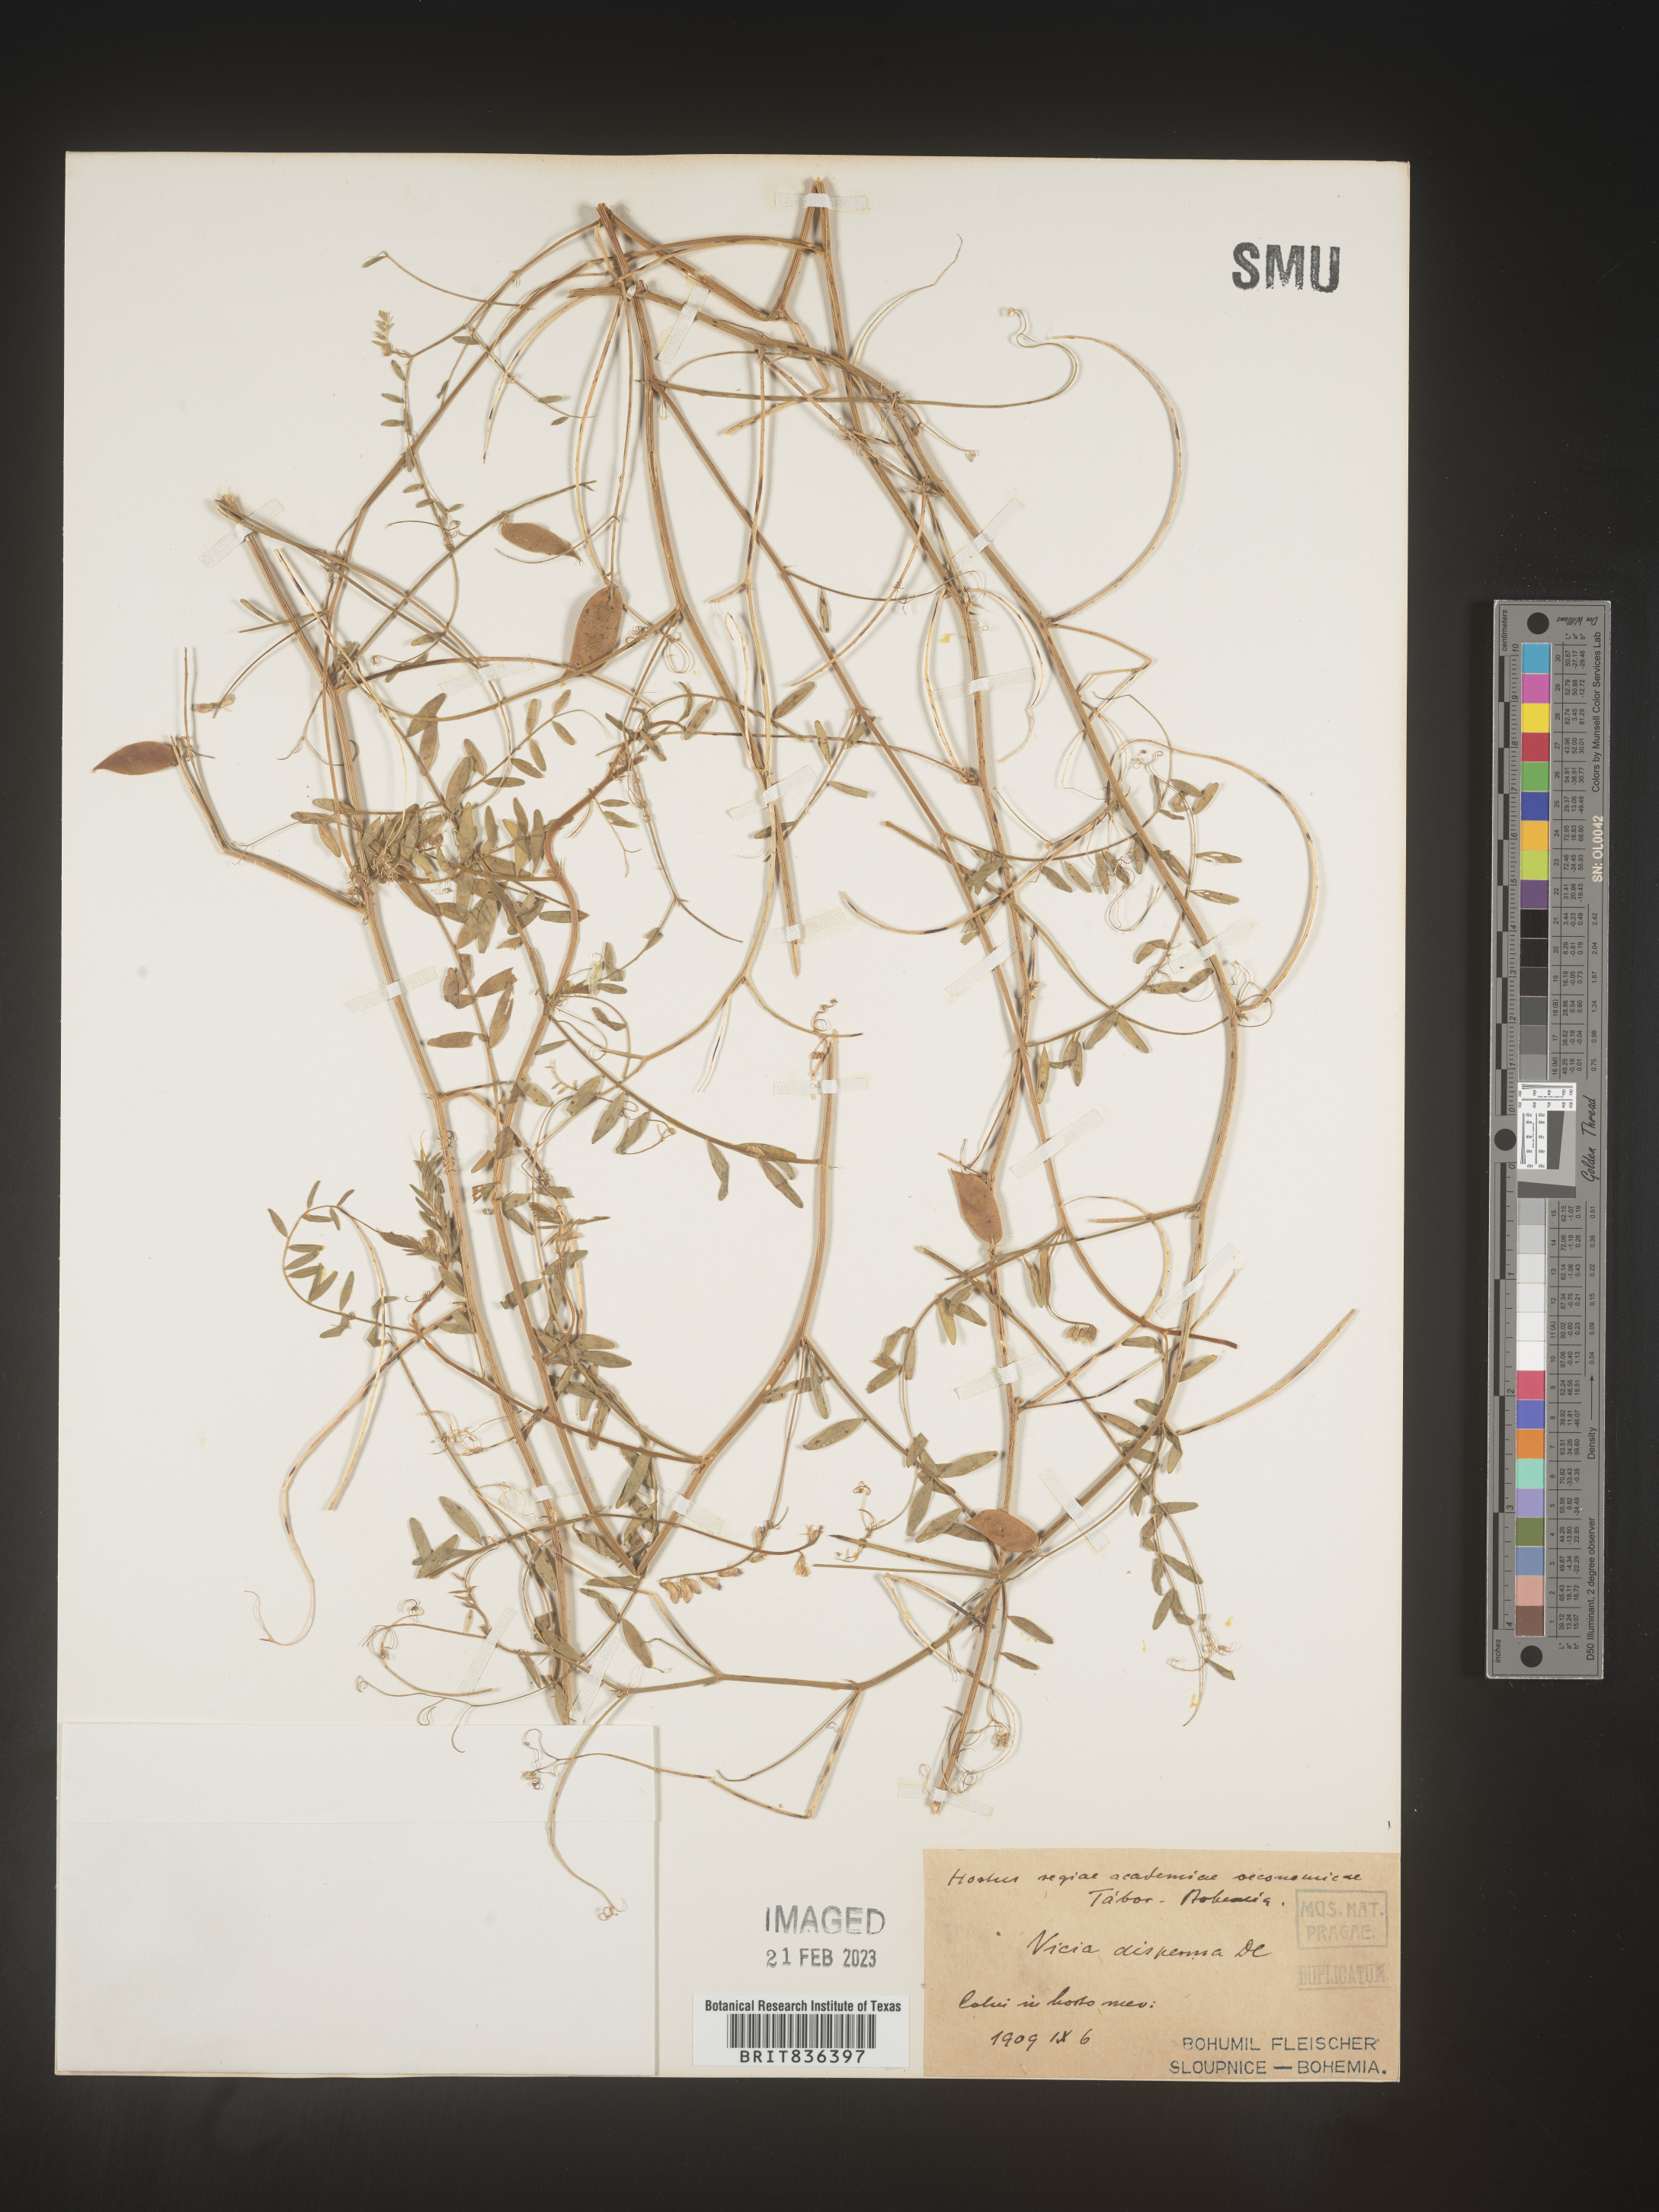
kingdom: Plantae
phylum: Tracheophyta
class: Magnoliopsida
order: Fabales
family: Fabaceae
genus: Vicia
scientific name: Vicia
